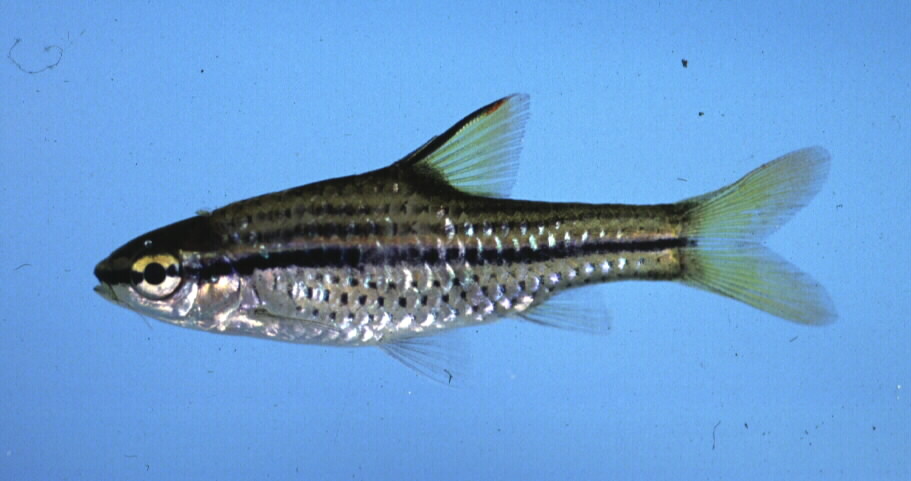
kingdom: Animalia
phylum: Chordata
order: Cypriniformes
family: Cyprinidae
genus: Enteromius
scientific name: Enteromius multilineatus
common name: Copperstripe barb
